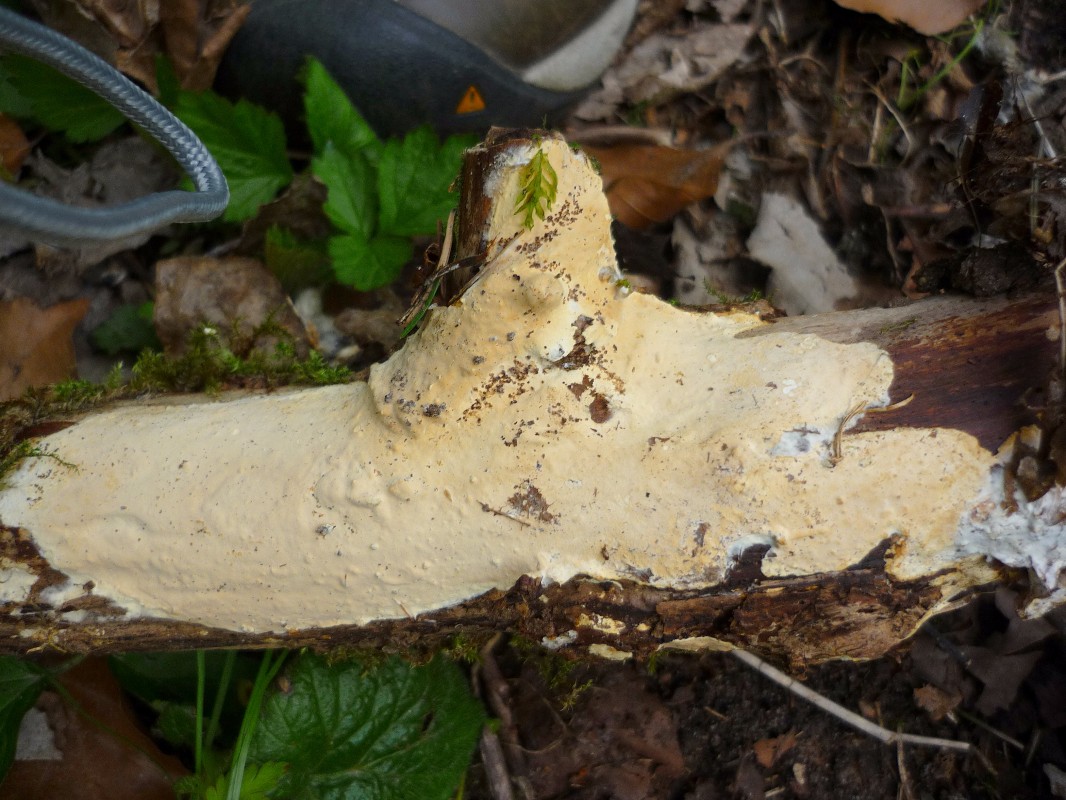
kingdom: Fungi
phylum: Basidiomycota
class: Agaricomycetes
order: Russulales
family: Peniophoraceae
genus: Scytinostroma
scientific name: Scytinostroma hemidichophyticum
